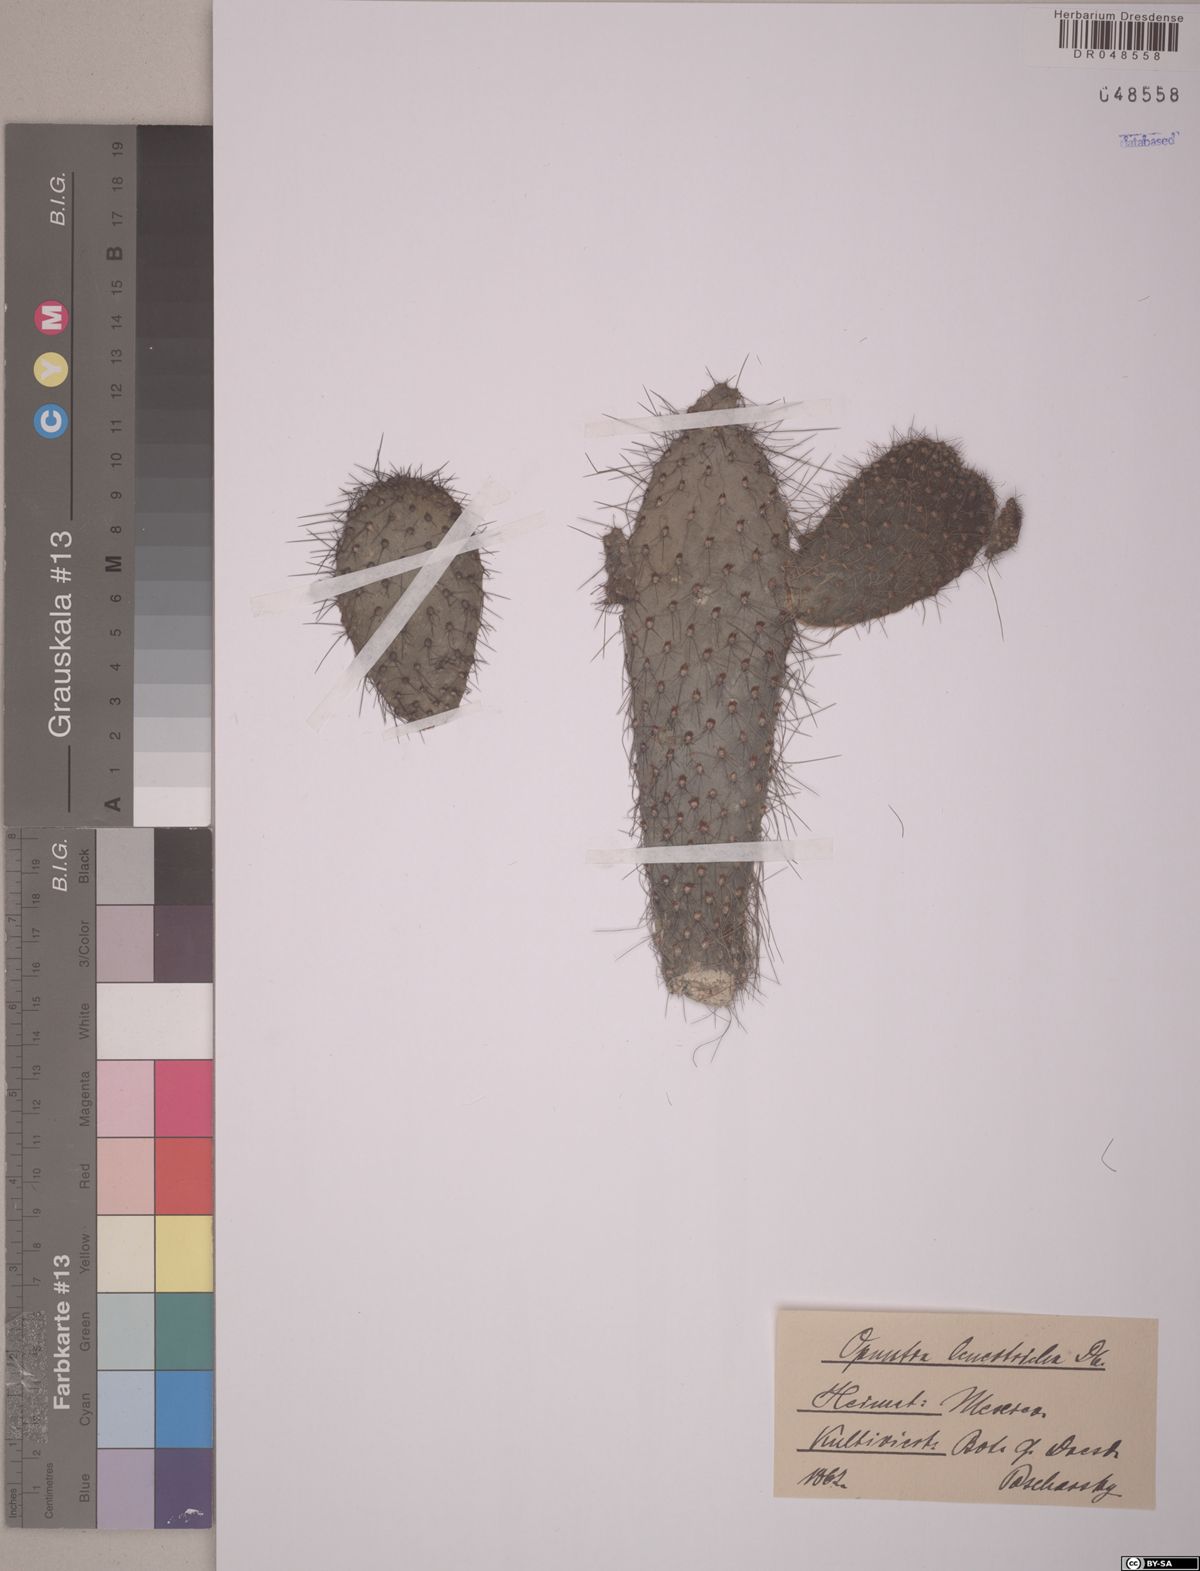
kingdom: Plantae
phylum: Tracheophyta
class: Magnoliopsida
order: Caryophyllales
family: Cactaceae
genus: Opuntia
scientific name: Opuntia leucotricha
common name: Arborescent pricklypear
